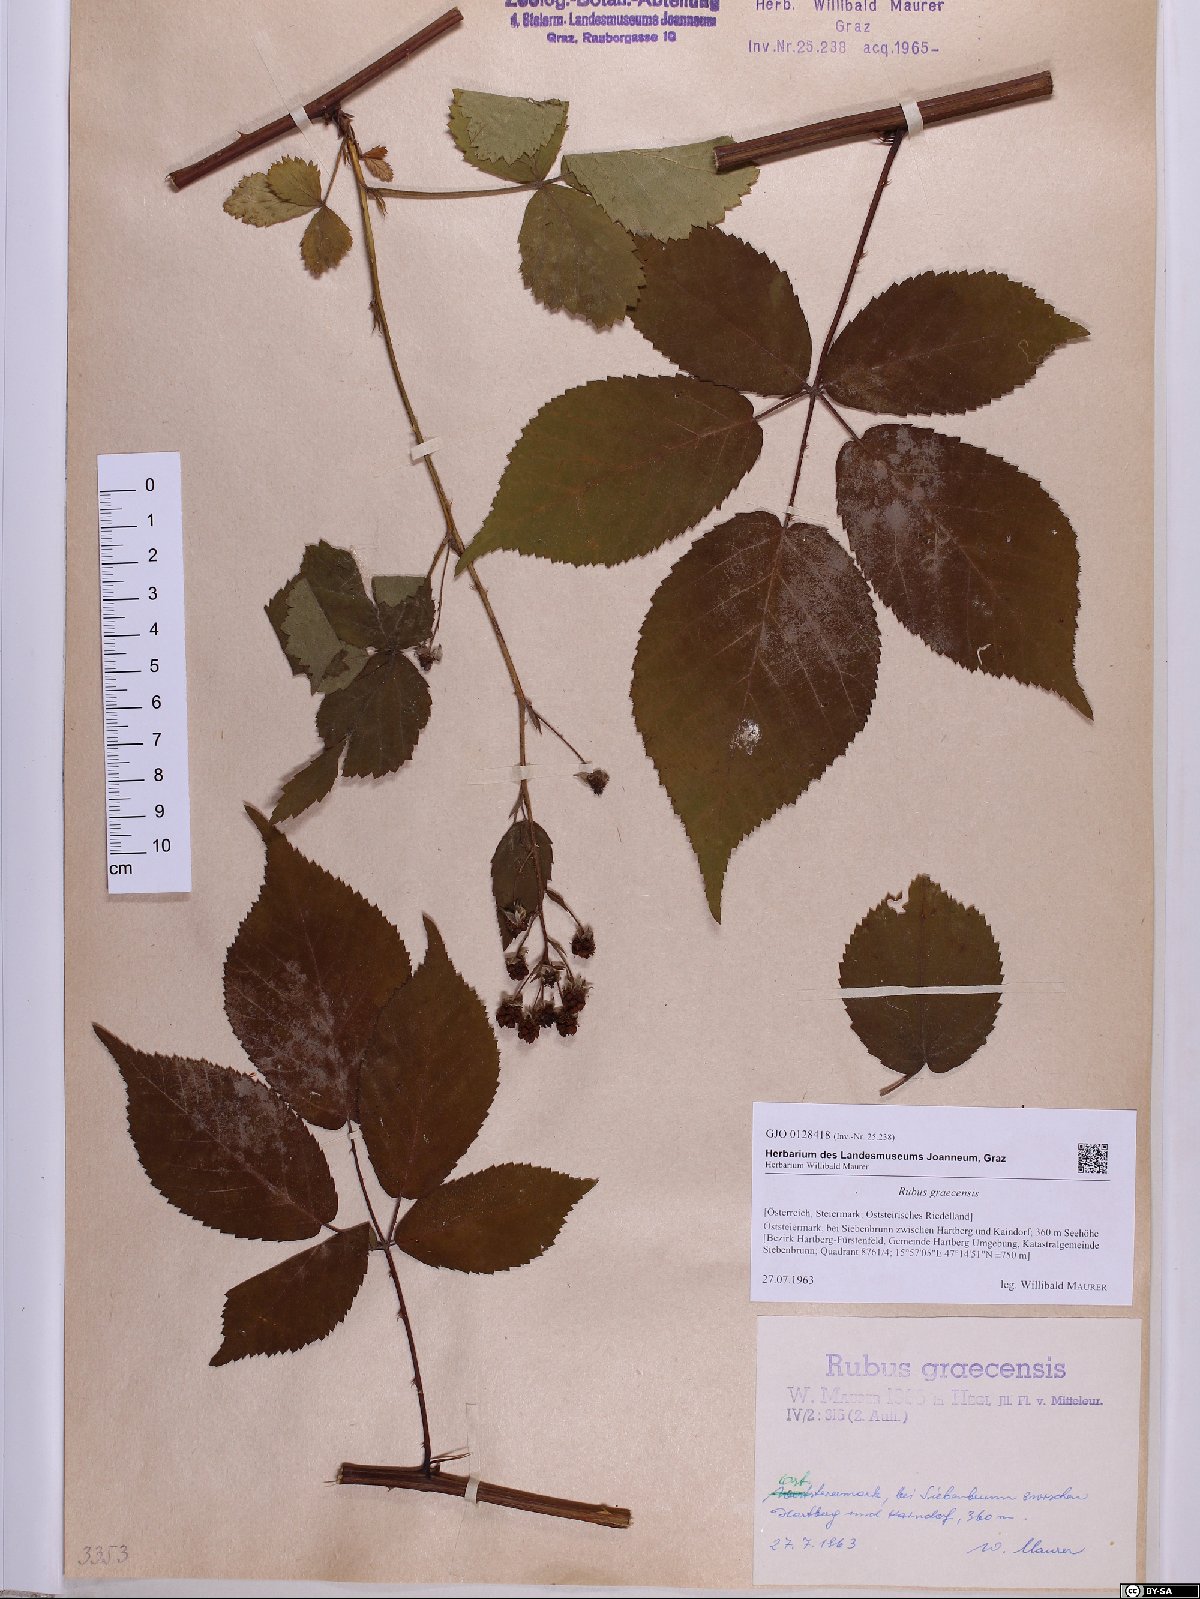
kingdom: Plantae
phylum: Tracheophyta
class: Magnoliopsida
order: Rosales
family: Rosaceae
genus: Rubus
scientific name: Rubus graecensis
